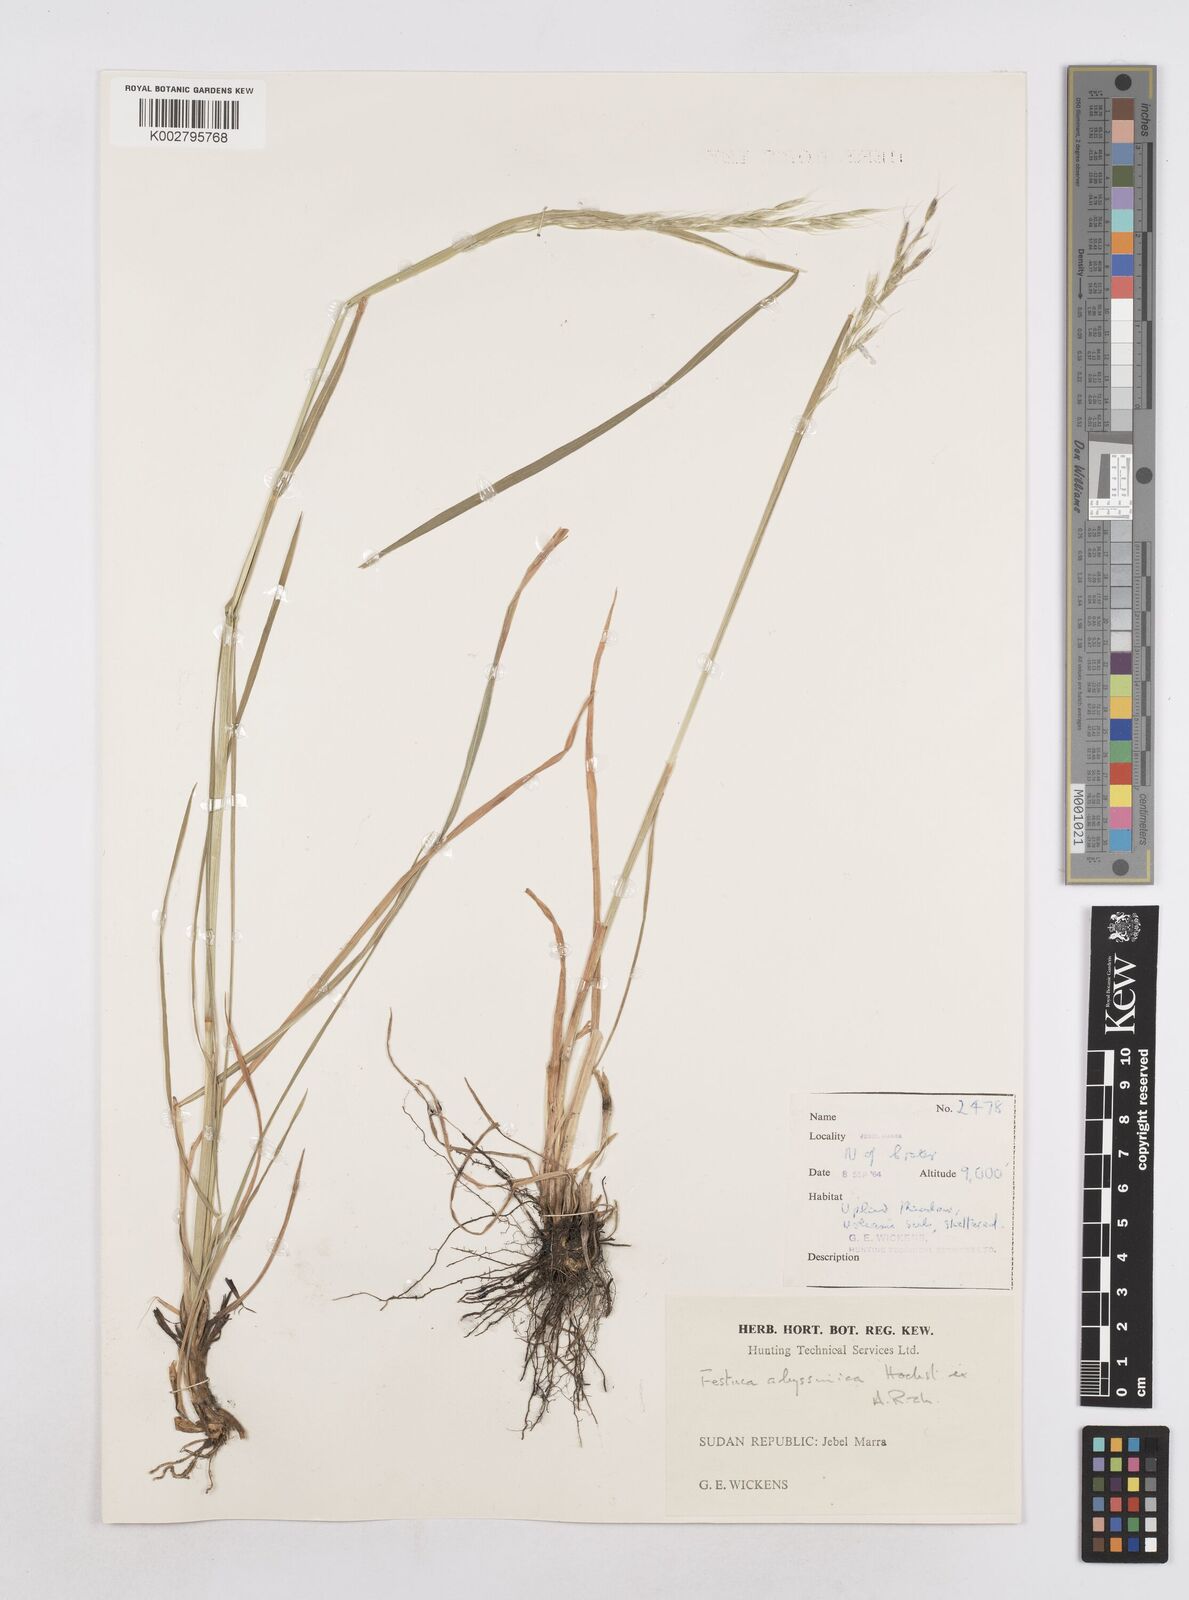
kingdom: Plantae
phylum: Tracheophyta
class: Liliopsida
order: Poales
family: Poaceae
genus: Trisetopsis
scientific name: Trisetopsis elongata
